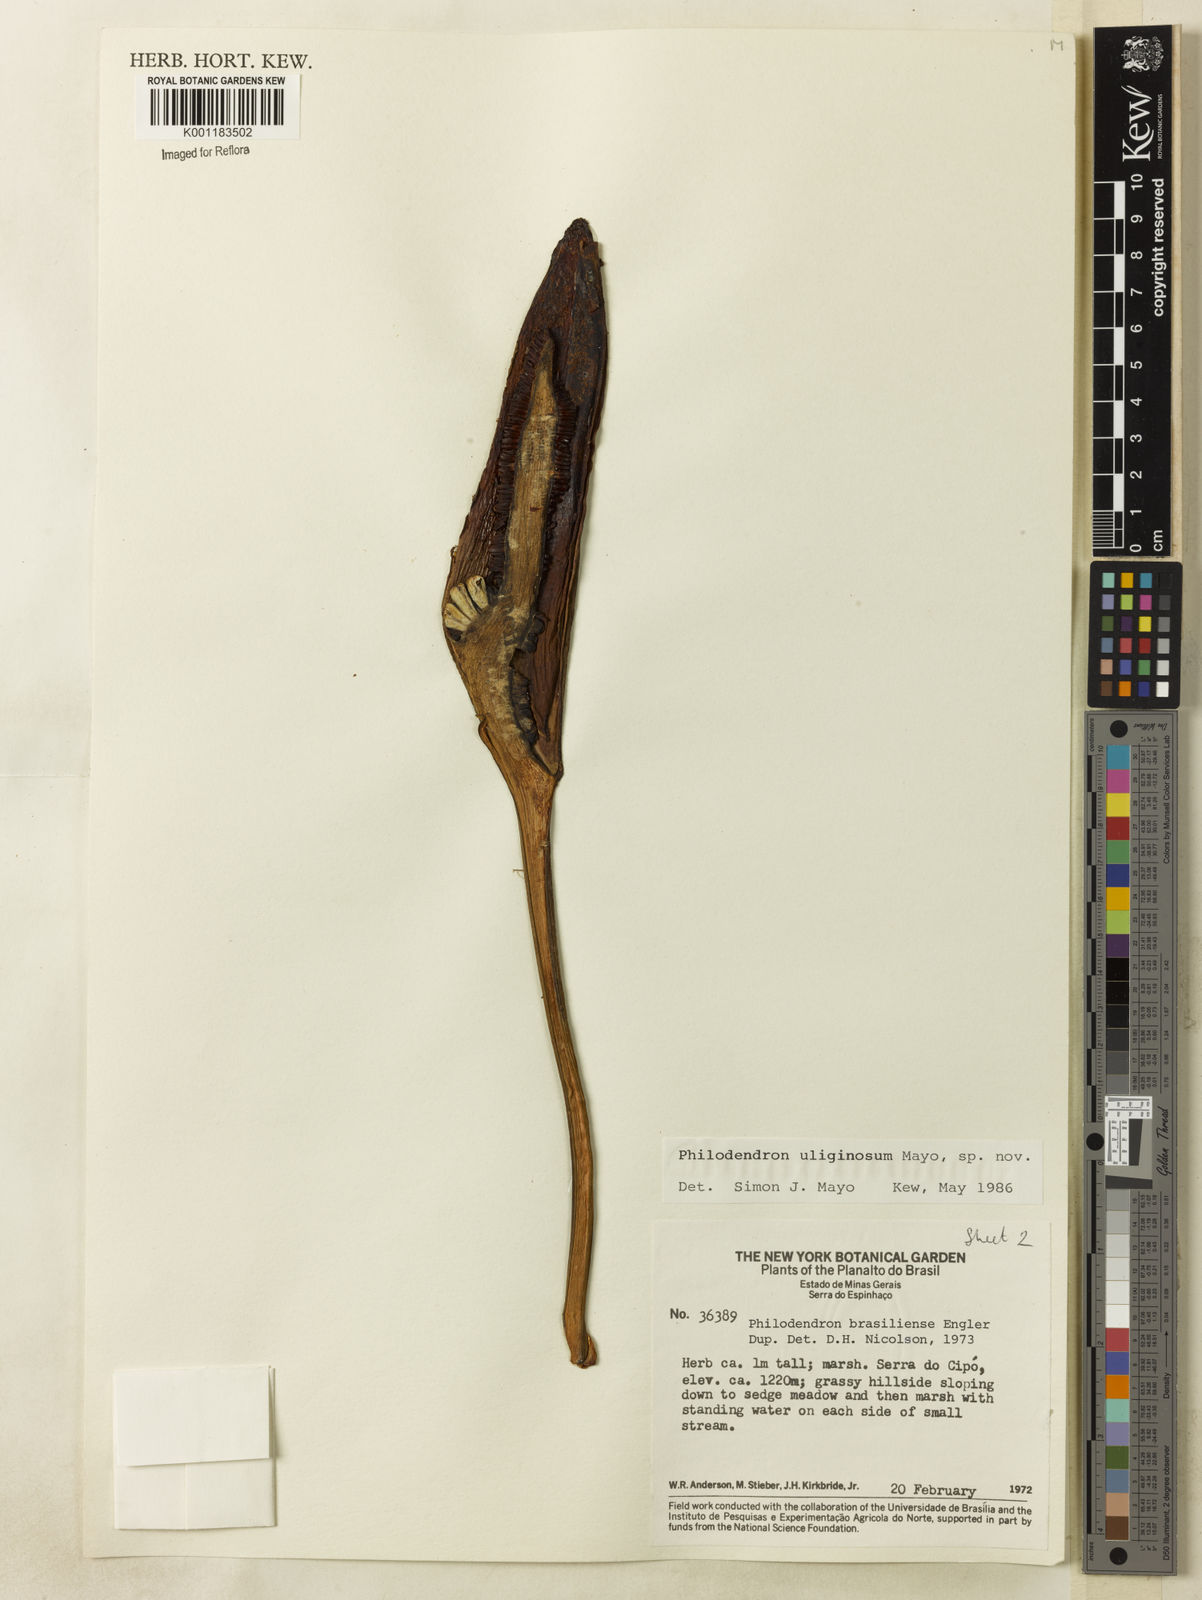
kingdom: Plantae
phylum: Tracheophyta
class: Liliopsida
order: Alismatales
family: Araceae
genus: Thaumatophyllum
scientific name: Thaumatophyllum uliginosum
